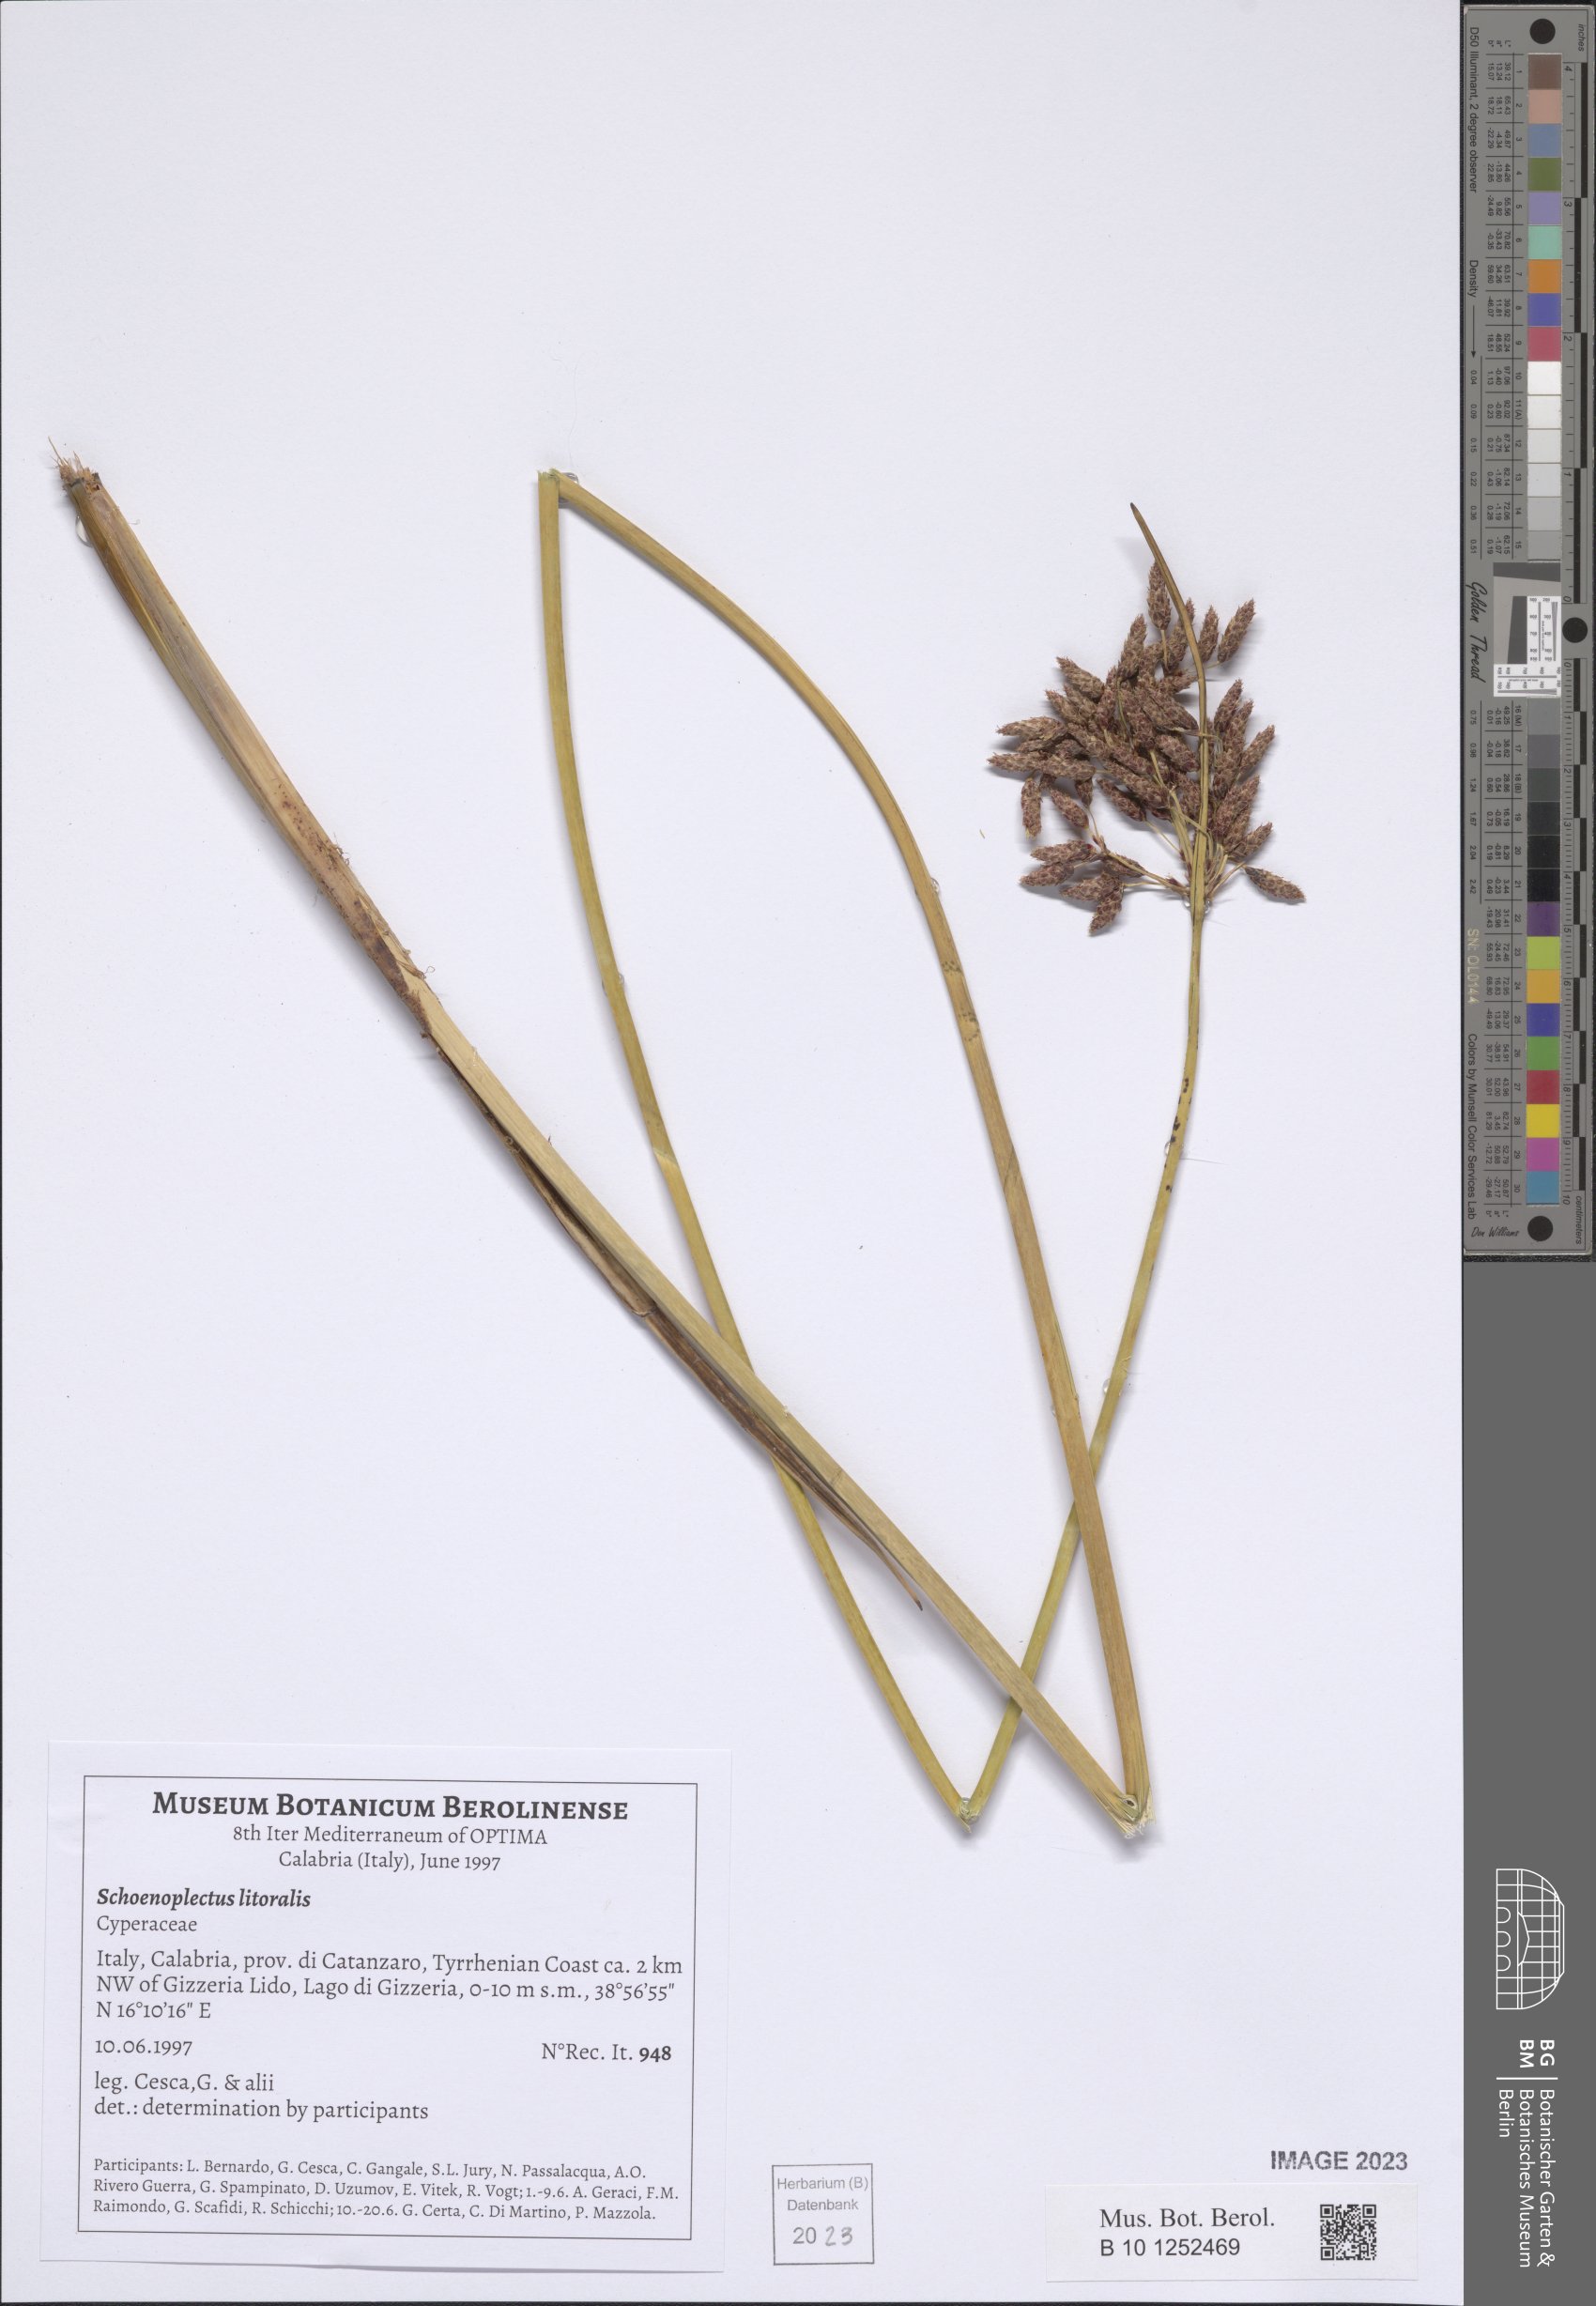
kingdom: Plantae
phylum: Tracheophyta
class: Liliopsida
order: Poales
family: Cyperaceae
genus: Schoenoplectus
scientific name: Schoenoplectus litoralis
